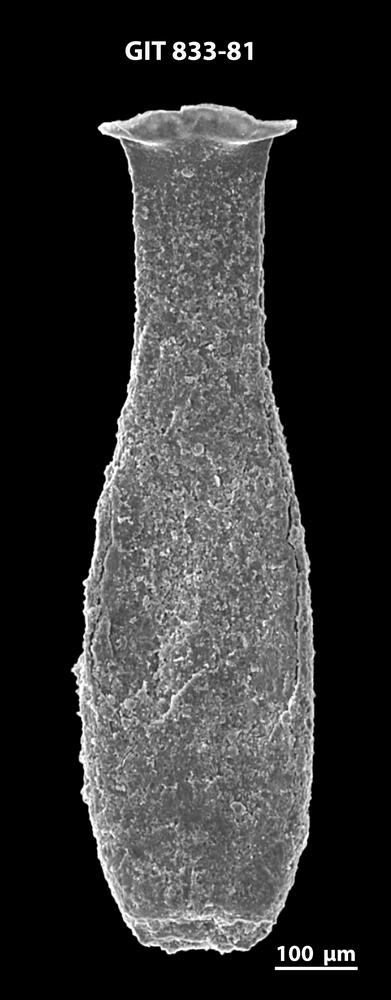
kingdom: Animalia
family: Lagenochitinidae
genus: Lagenochitina
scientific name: Lagenochitina megaesthonica
